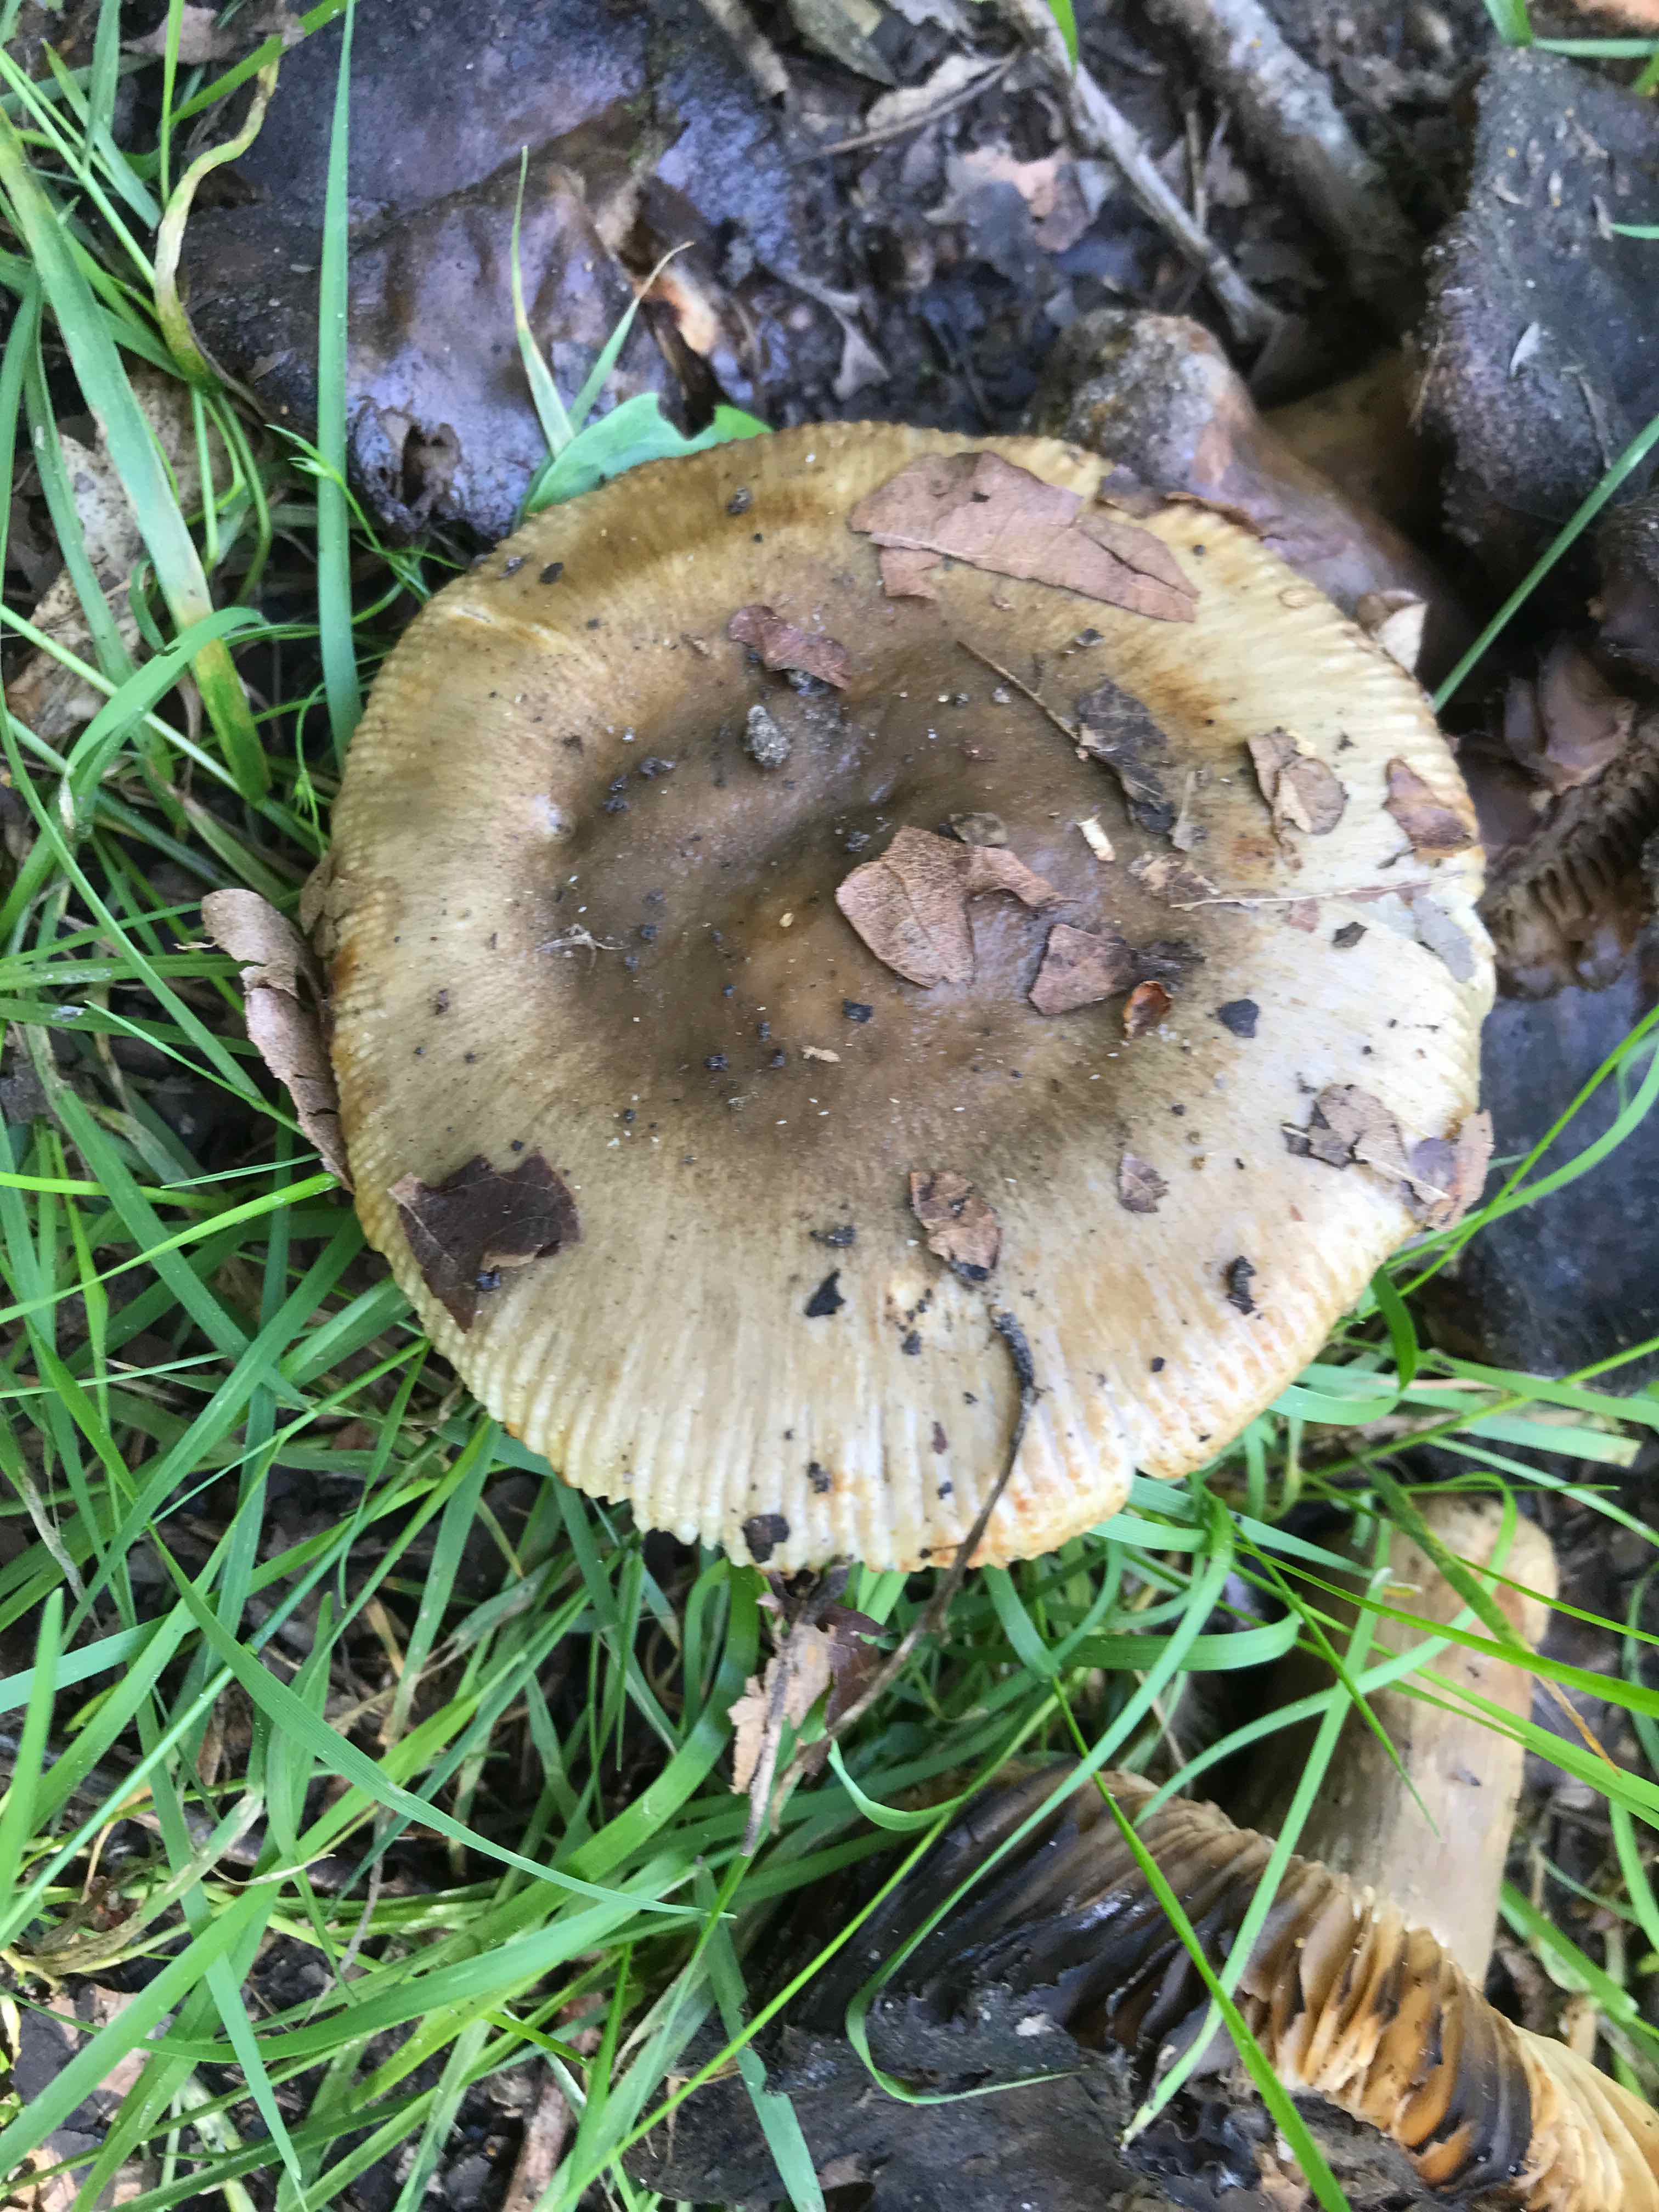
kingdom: Fungi
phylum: Basidiomycota
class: Agaricomycetes
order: Russulales
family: Russulaceae
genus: Russula
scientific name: Russula sororia
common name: brun kam-skørhat
